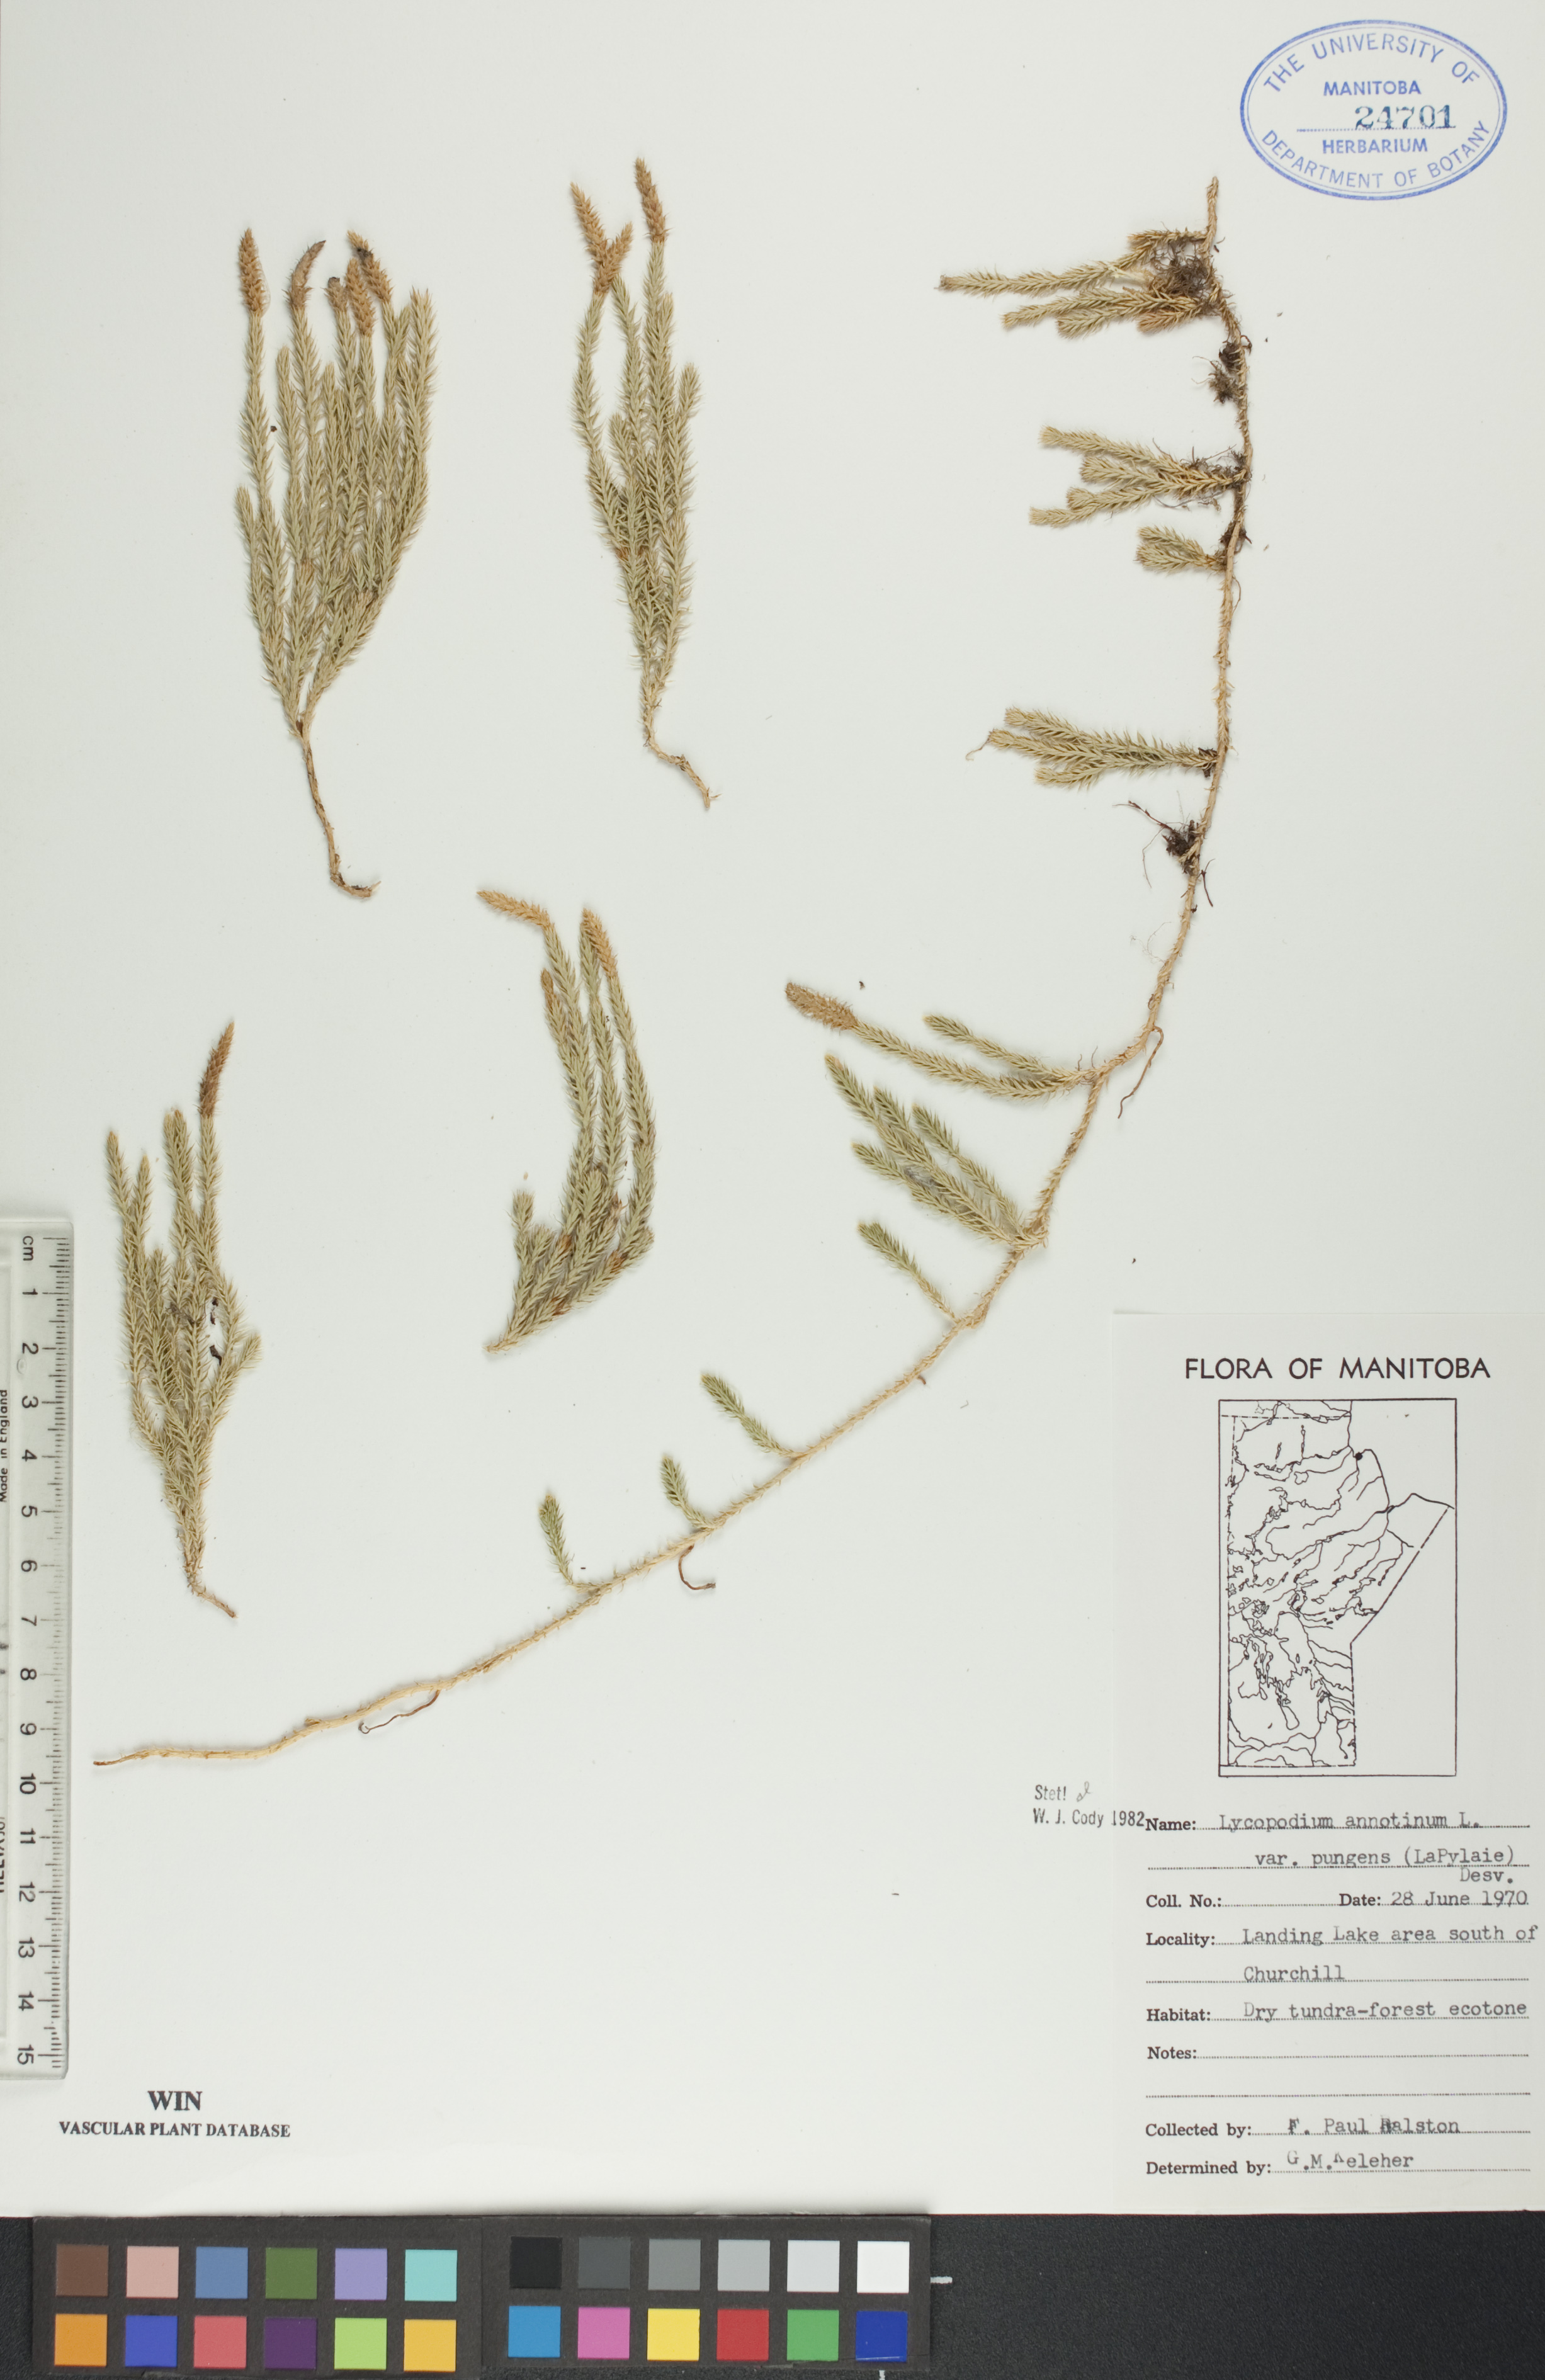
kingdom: Plantae
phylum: Tracheophyta
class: Lycopodiopsida
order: Lycopodiales
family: Lycopodiaceae
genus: Spinulum
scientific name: Spinulum annotinum
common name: Interrupted club-moss
